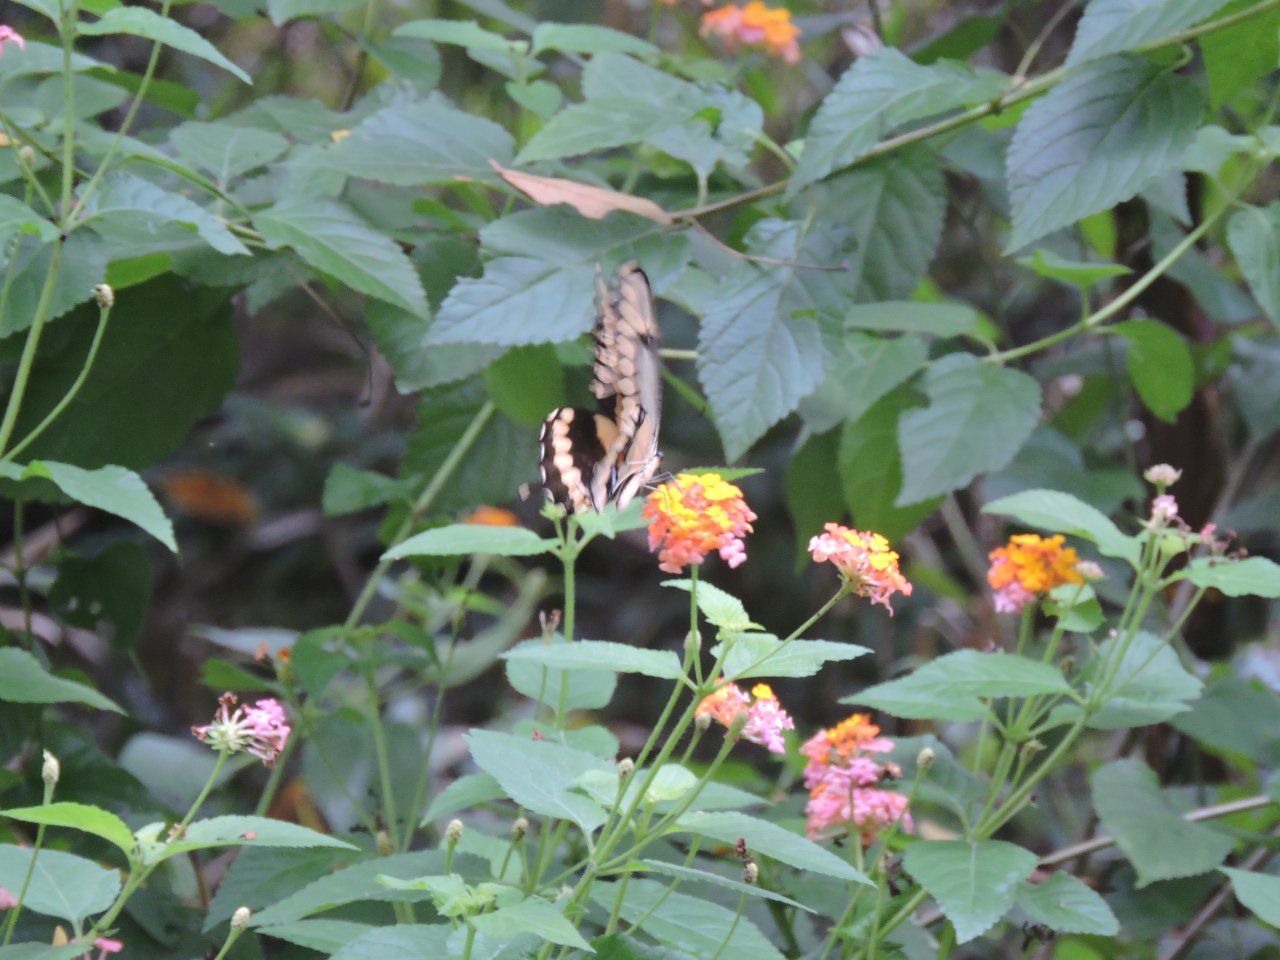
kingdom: Animalia
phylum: Arthropoda
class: Insecta
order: Lepidoptera
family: Papilionidae
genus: Papilio
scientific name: Papilio cresphontes
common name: Eastern Giant Swallowtail
